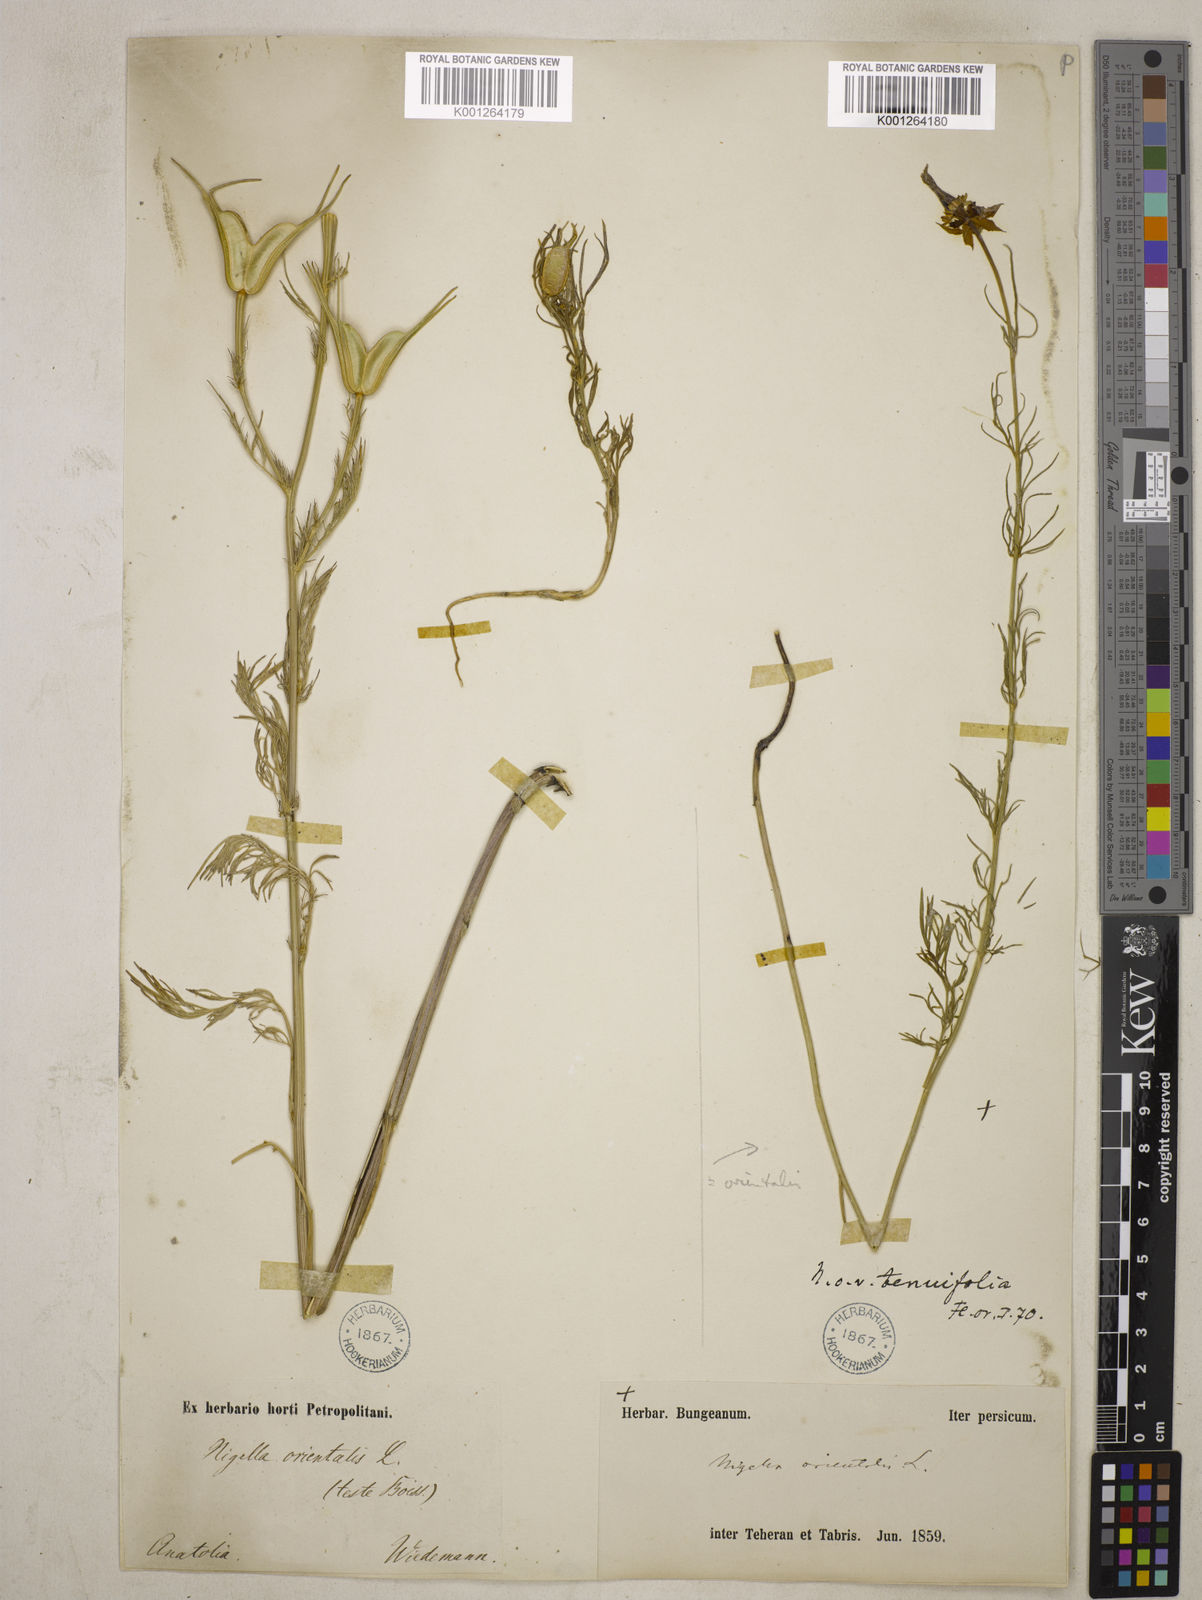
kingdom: Plantae
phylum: Tracheophyta
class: Magnoliopsida
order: Ranunculales
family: Ranunculaceae
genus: Nigella
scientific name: Nigella orientalis
